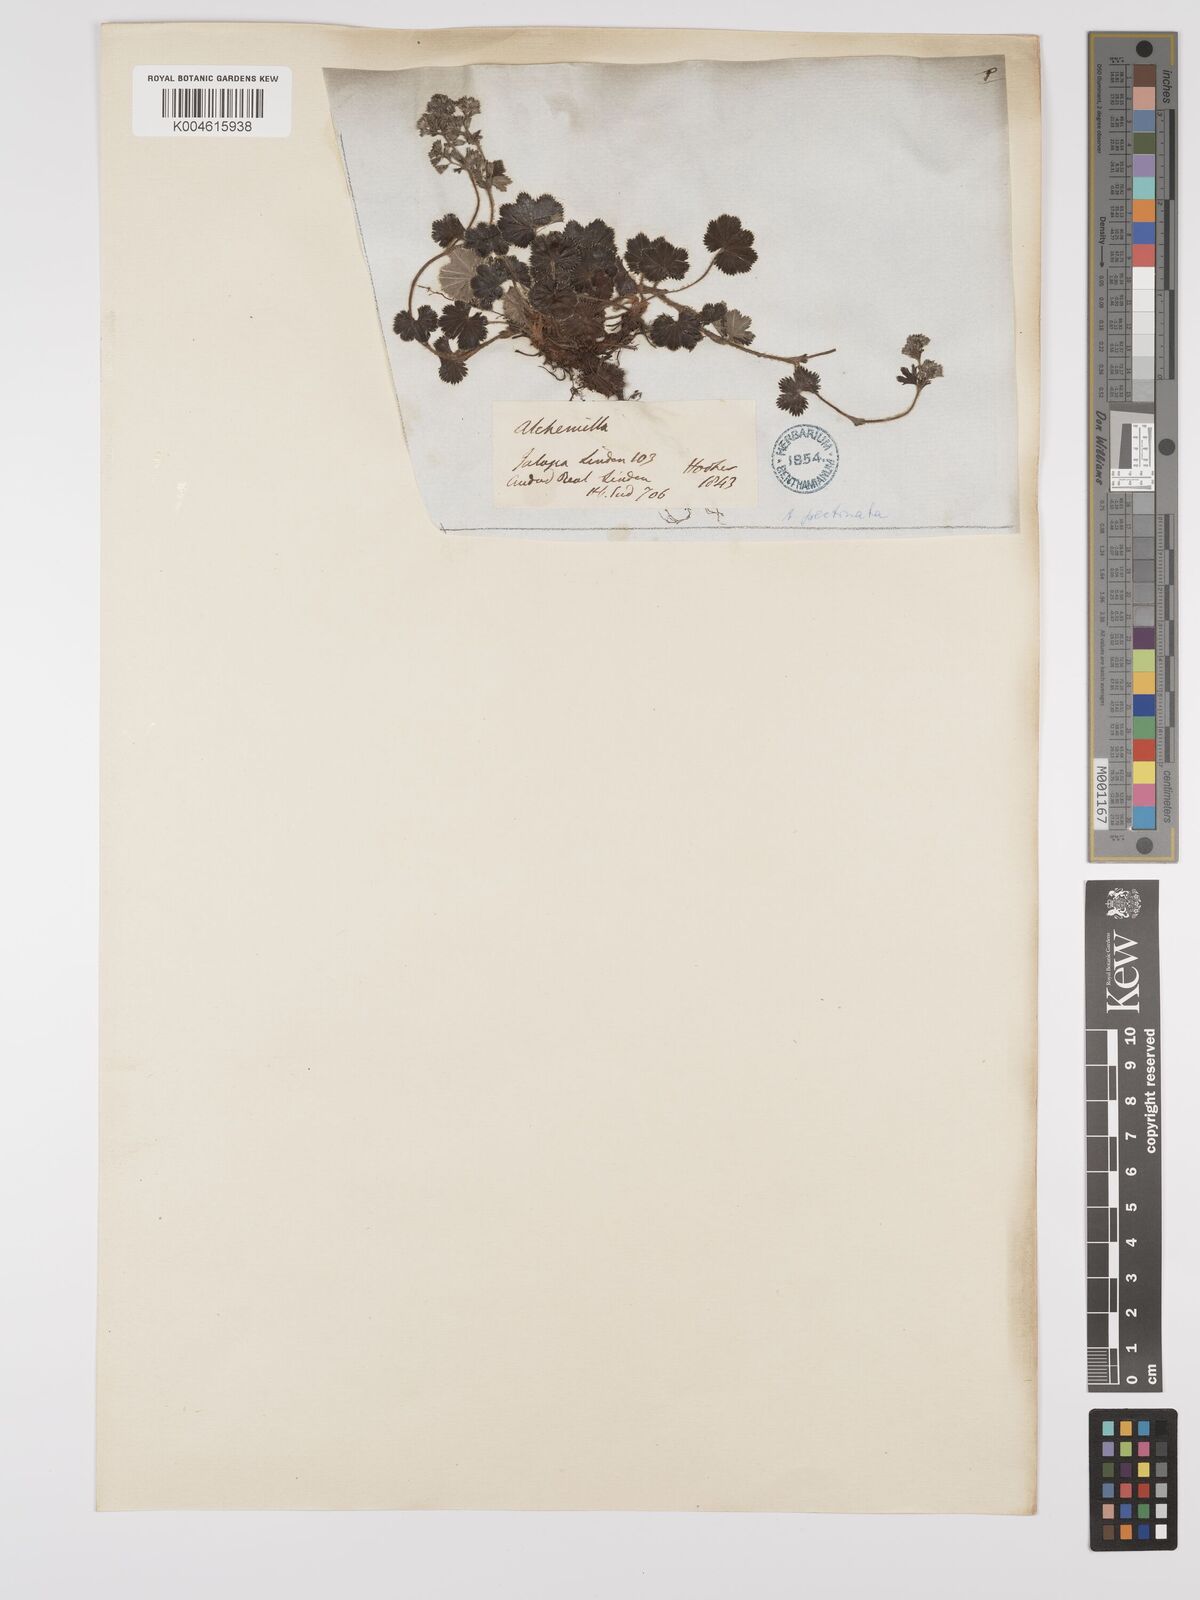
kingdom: Plantae
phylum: Tracheophyta
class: Magnoliopsida
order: Rosales
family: Rosaceae
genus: Lachemilla
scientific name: Lachemilla pectinata
